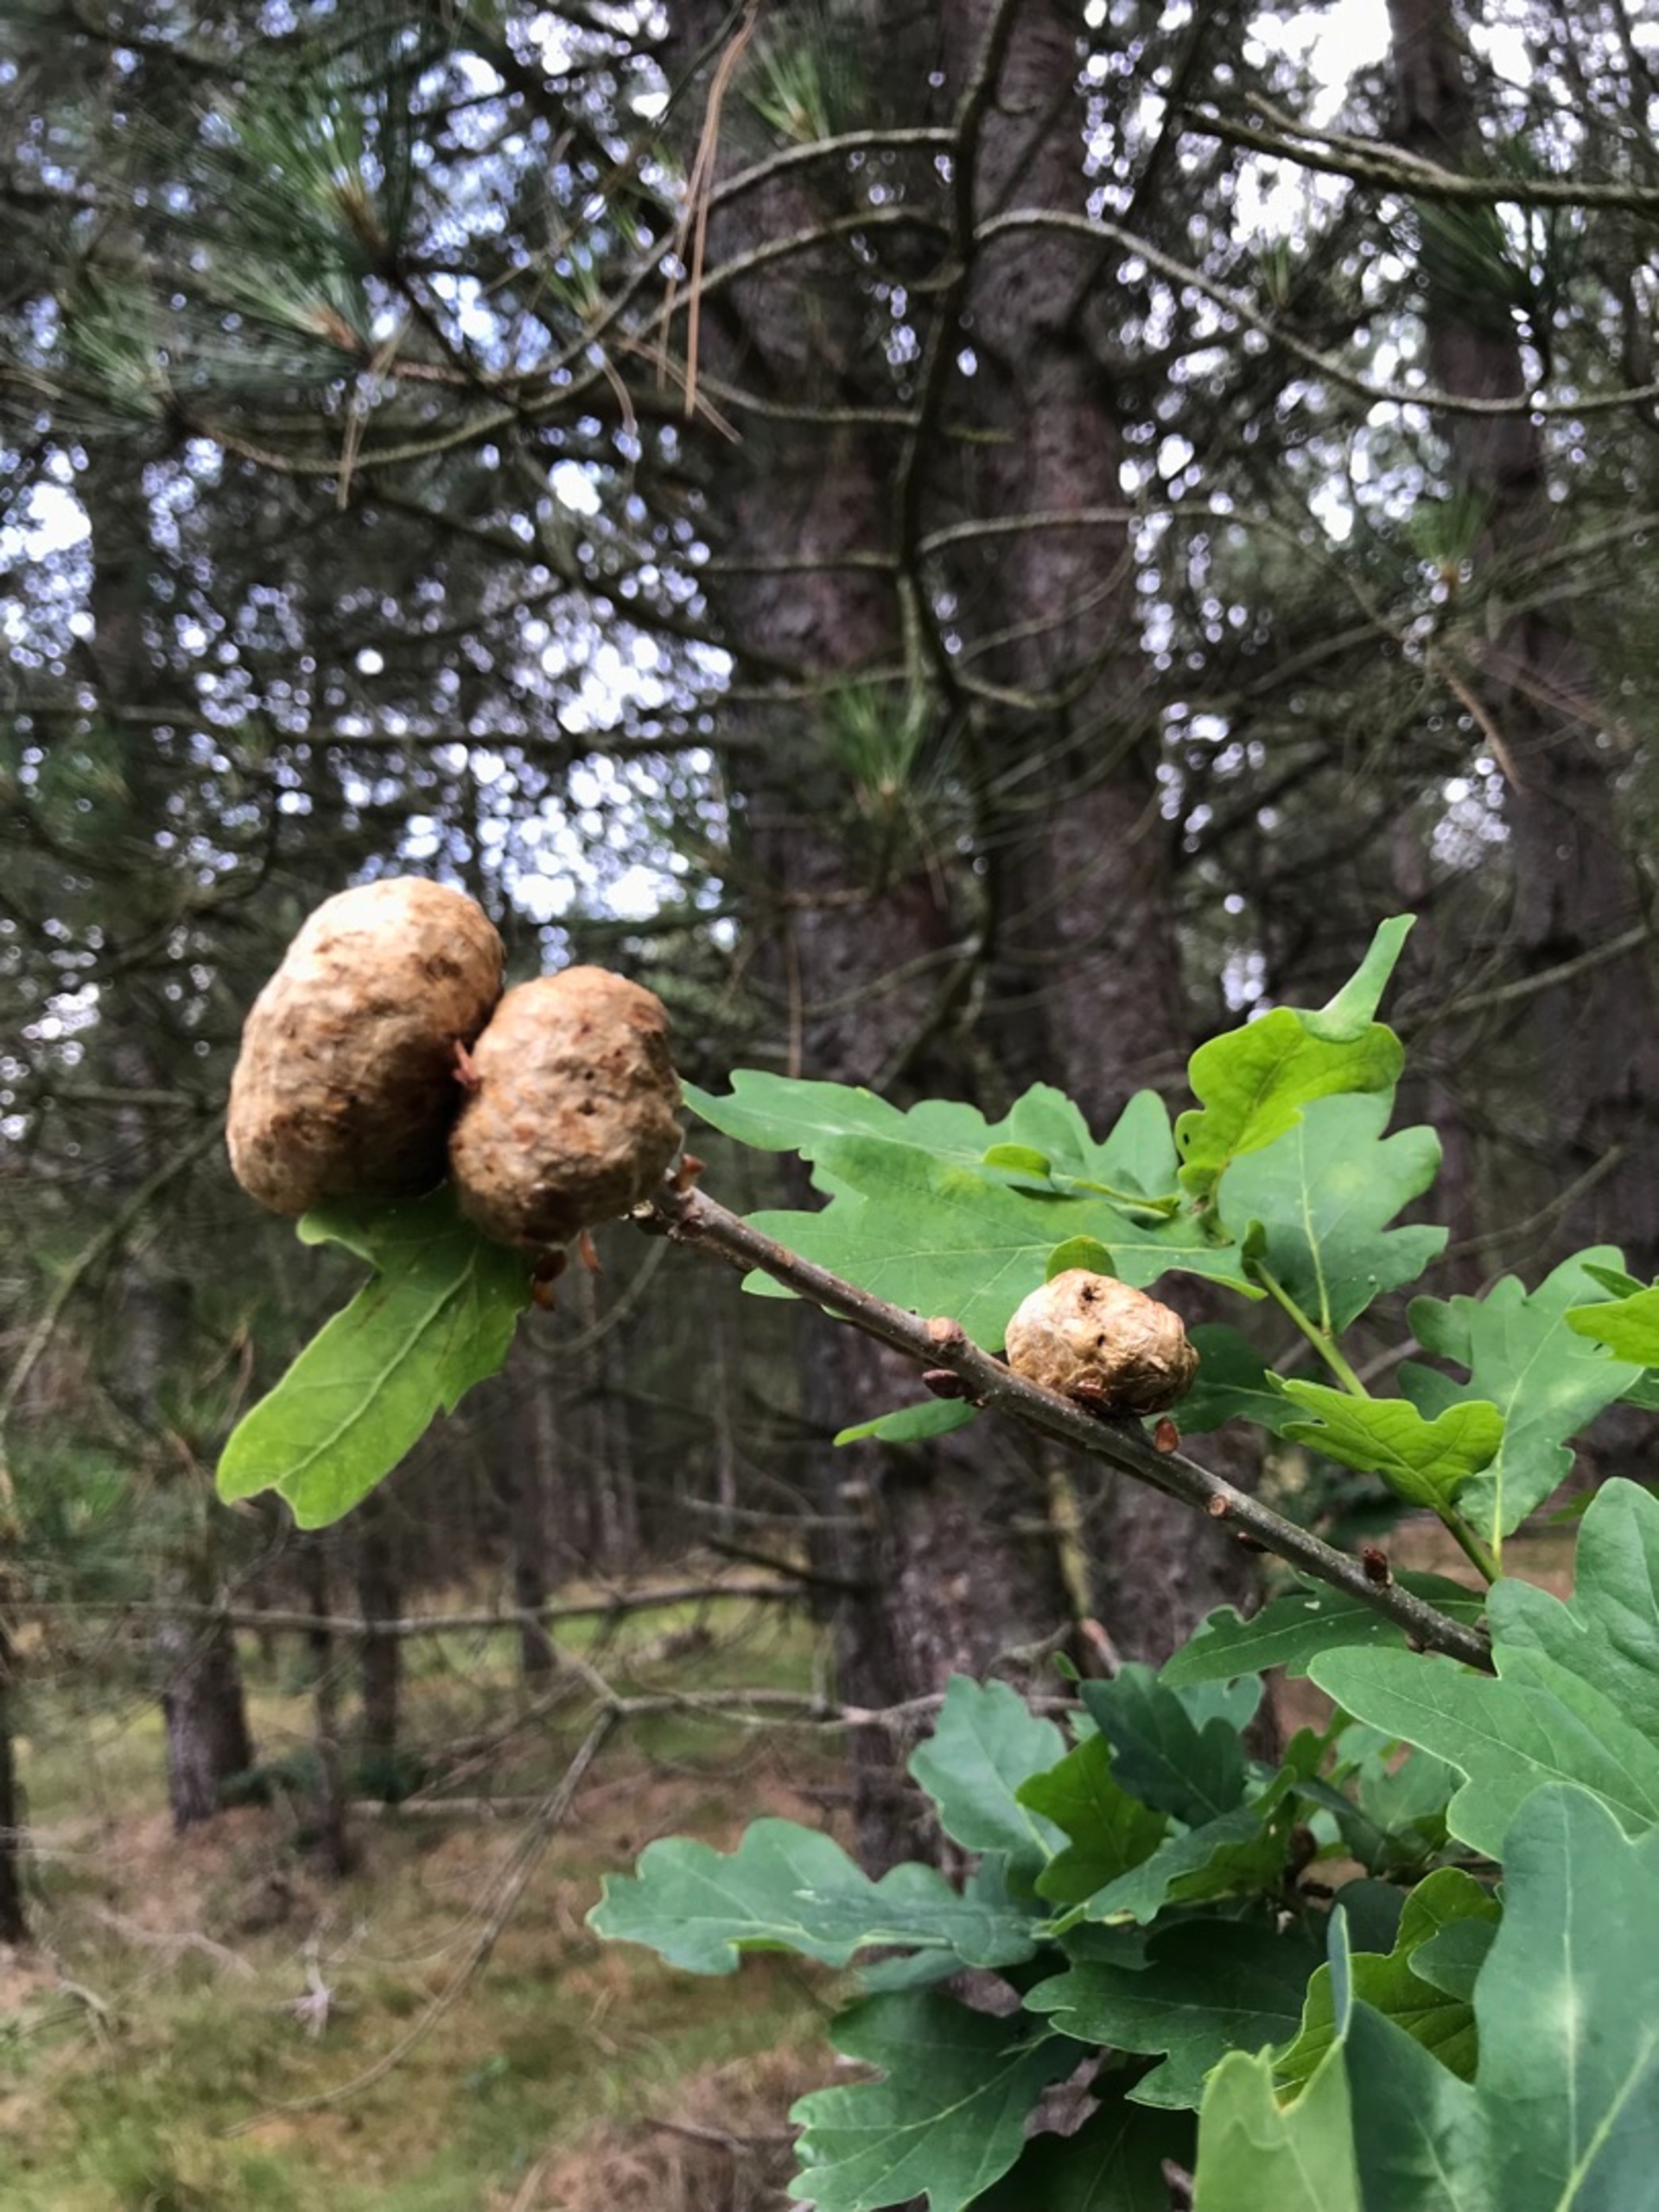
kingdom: Animalia
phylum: Arthropoda
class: Insecta
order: Hymenoptera
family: Cynipidae
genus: Biorhiza
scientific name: Biorhiza pallida
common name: Ege-kartoffelgalhveps
